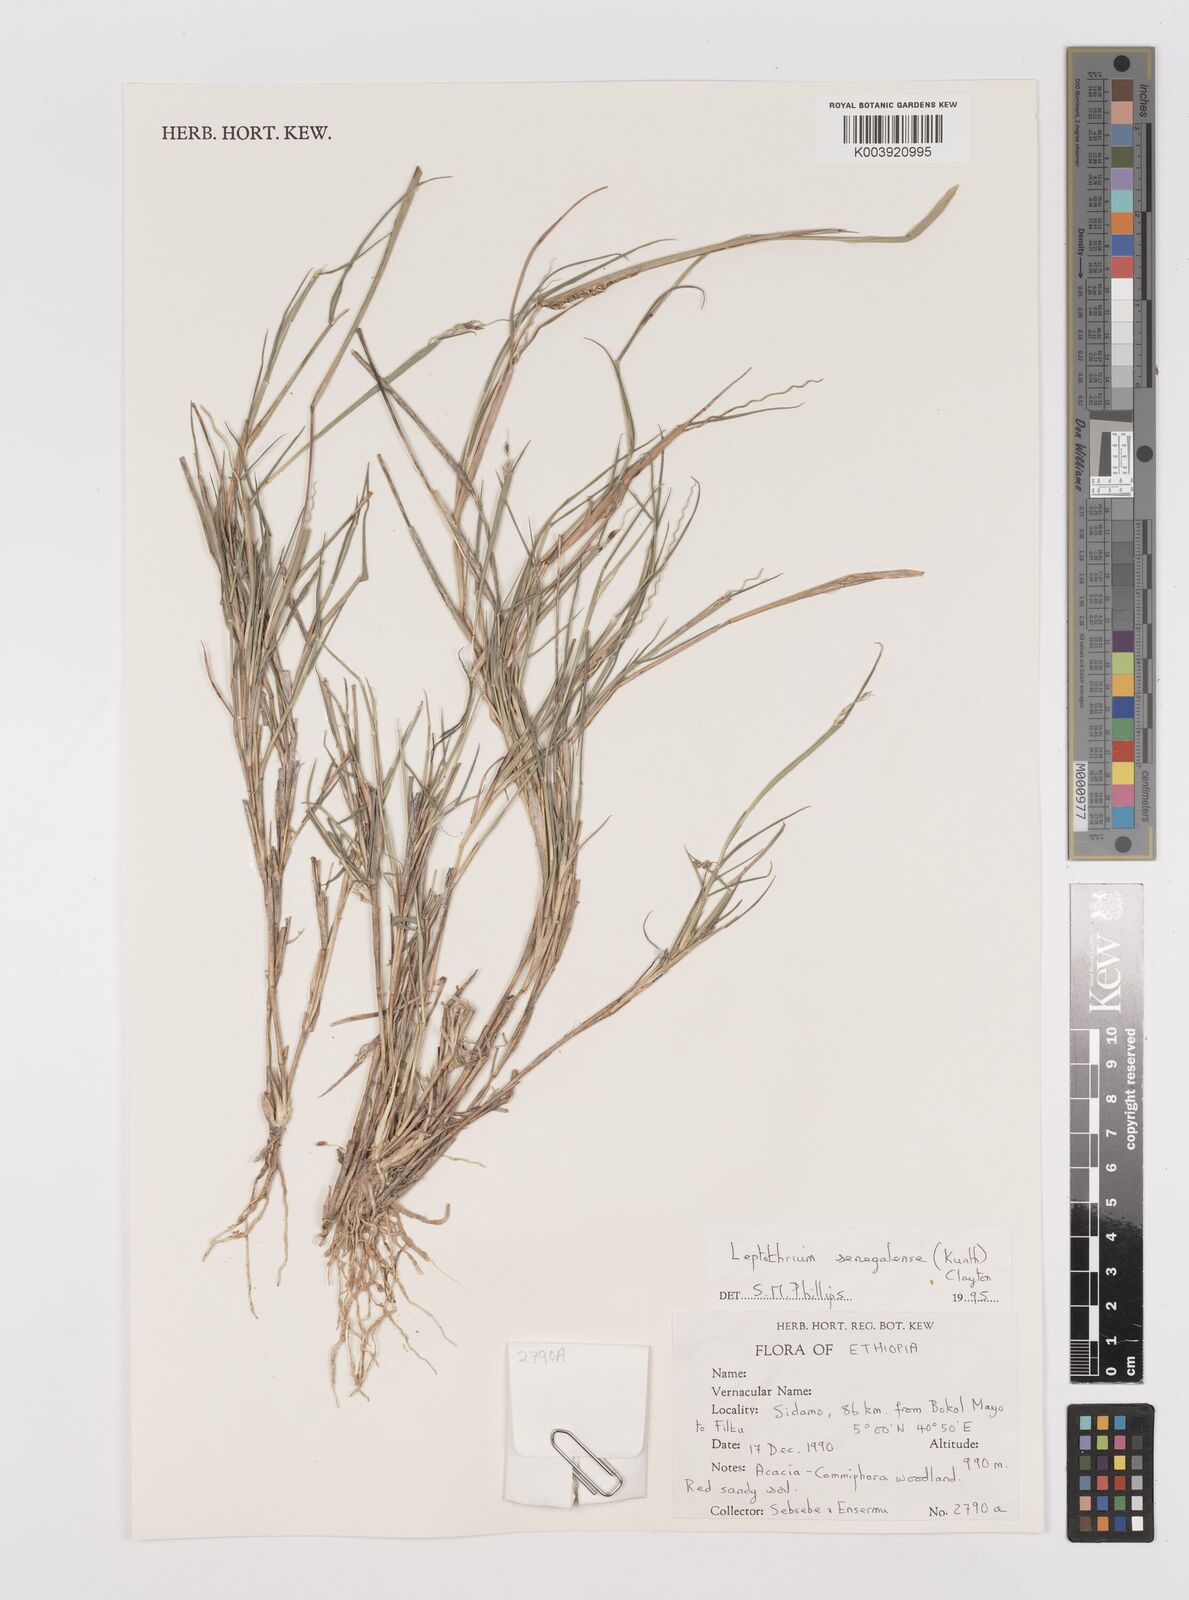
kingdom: Plantae
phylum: Tracheophyta
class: Liliopsida
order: Poales
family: Poaceae
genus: Leptothrium
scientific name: Leptothrium senegalense
